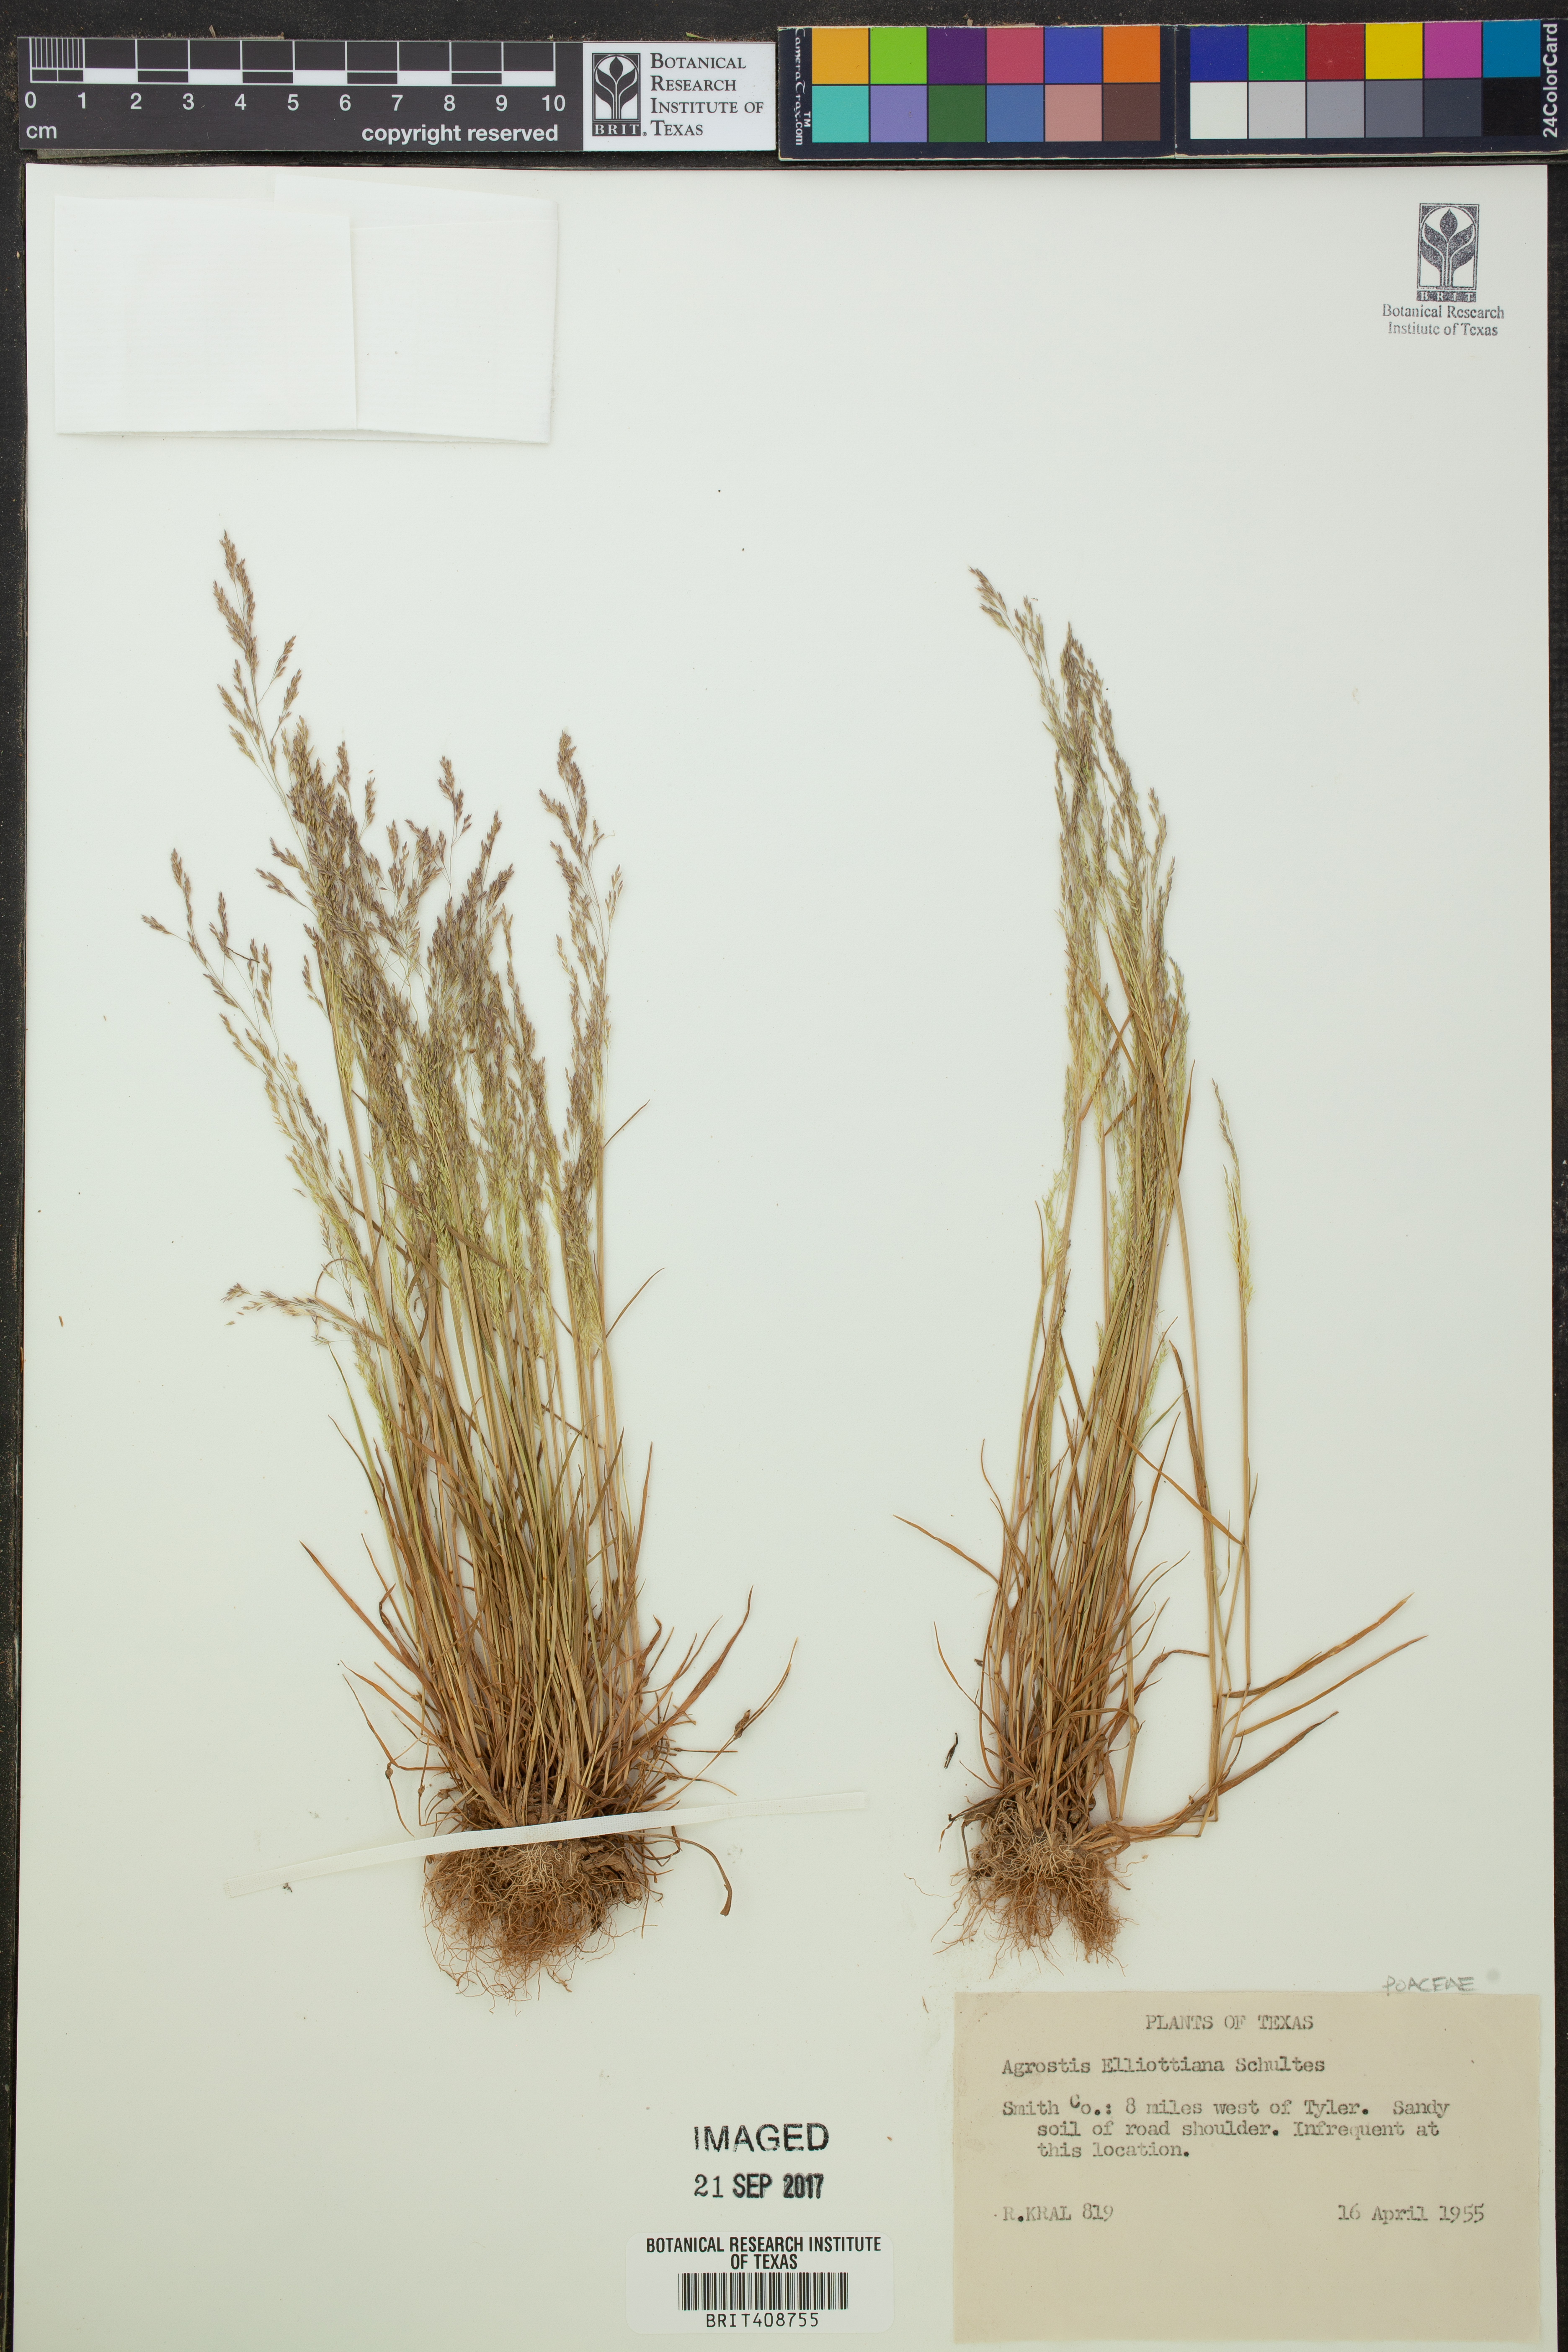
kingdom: Plantae
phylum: Tracheophyta
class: Liliopsida
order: Poales
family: Poaceae
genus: Agrostis
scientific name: Agrostis elliottiana
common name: Elliott's bent
